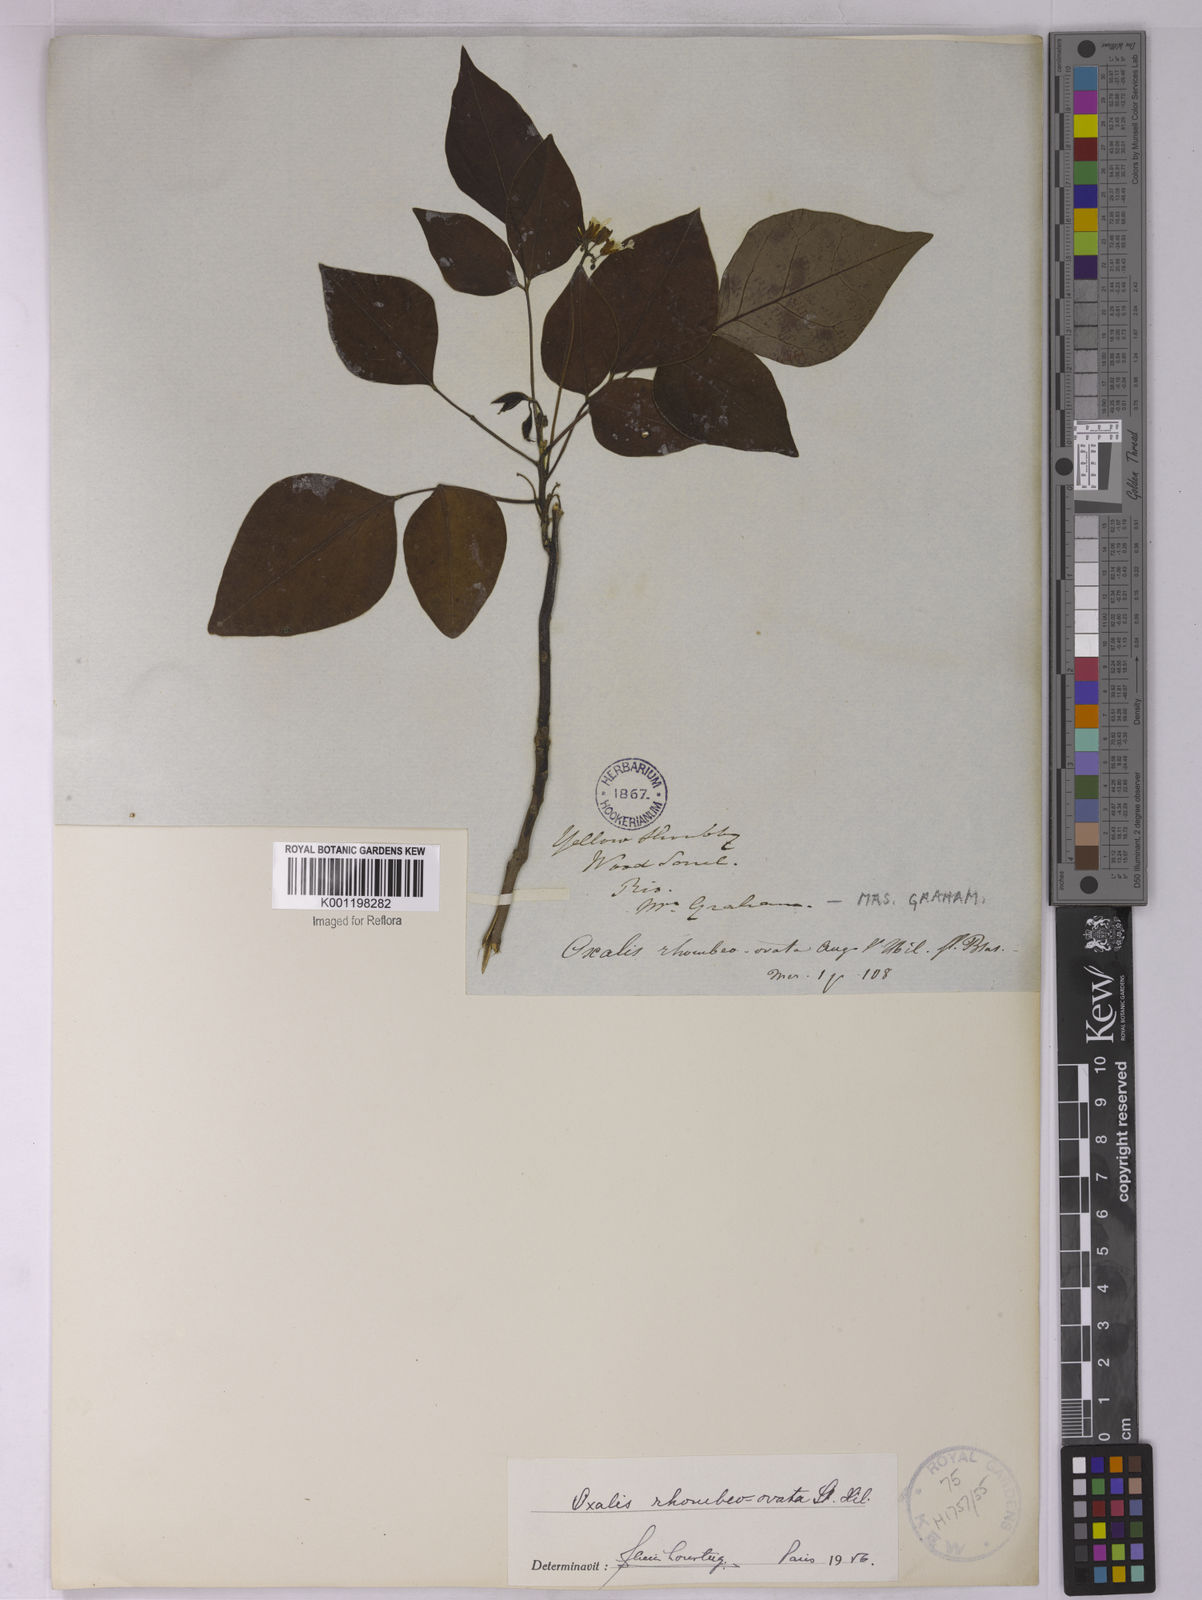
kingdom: Plantae
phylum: Tracheophyta
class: Magnoliopsida
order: Oxalidales
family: Oxalidaceae
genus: Oxalis
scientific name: Oxalis rhombeo-ovata
